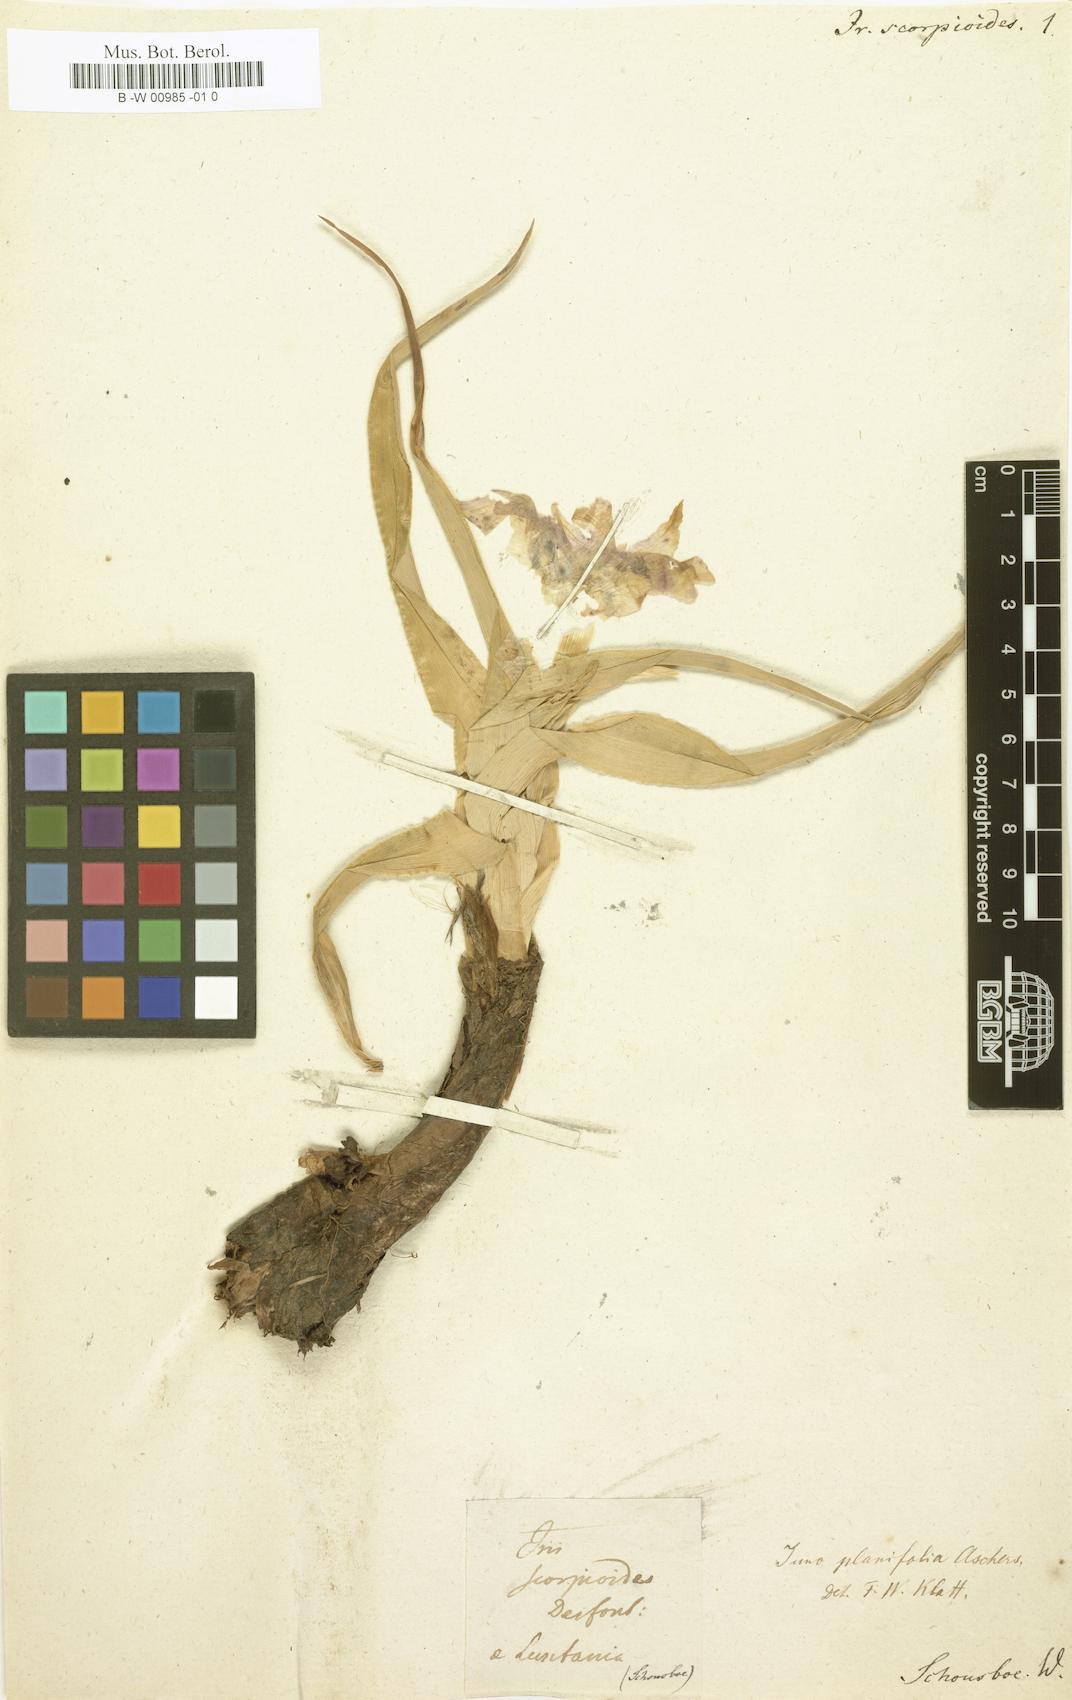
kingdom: Plantae
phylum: Tracheophyta
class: Liliopsida
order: Asparagales
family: Iridaceae
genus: Iris
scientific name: Iris planifolia
